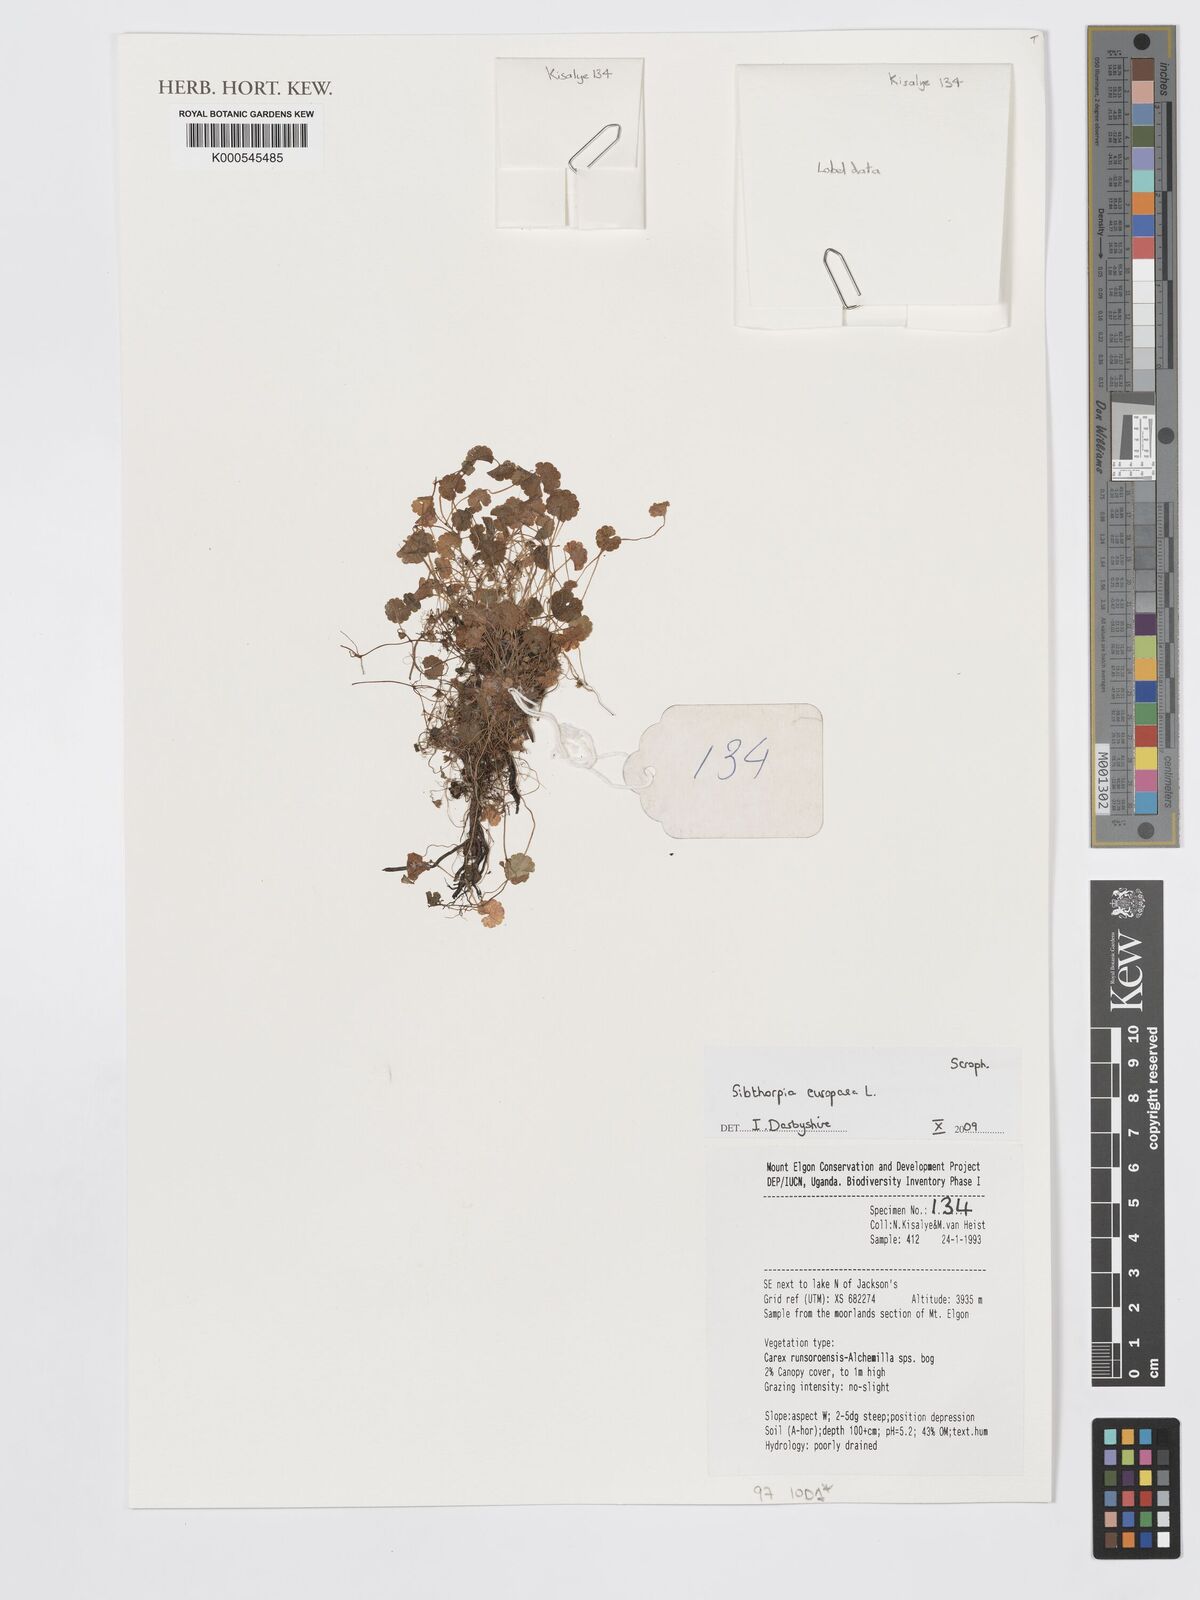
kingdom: Plantae
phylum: Tracheophyta
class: Magnoliopsida
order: Lamiales
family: Plantaginaceae
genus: Sibthorpia
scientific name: Sibthorpia europaea
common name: Cornish moneywort
